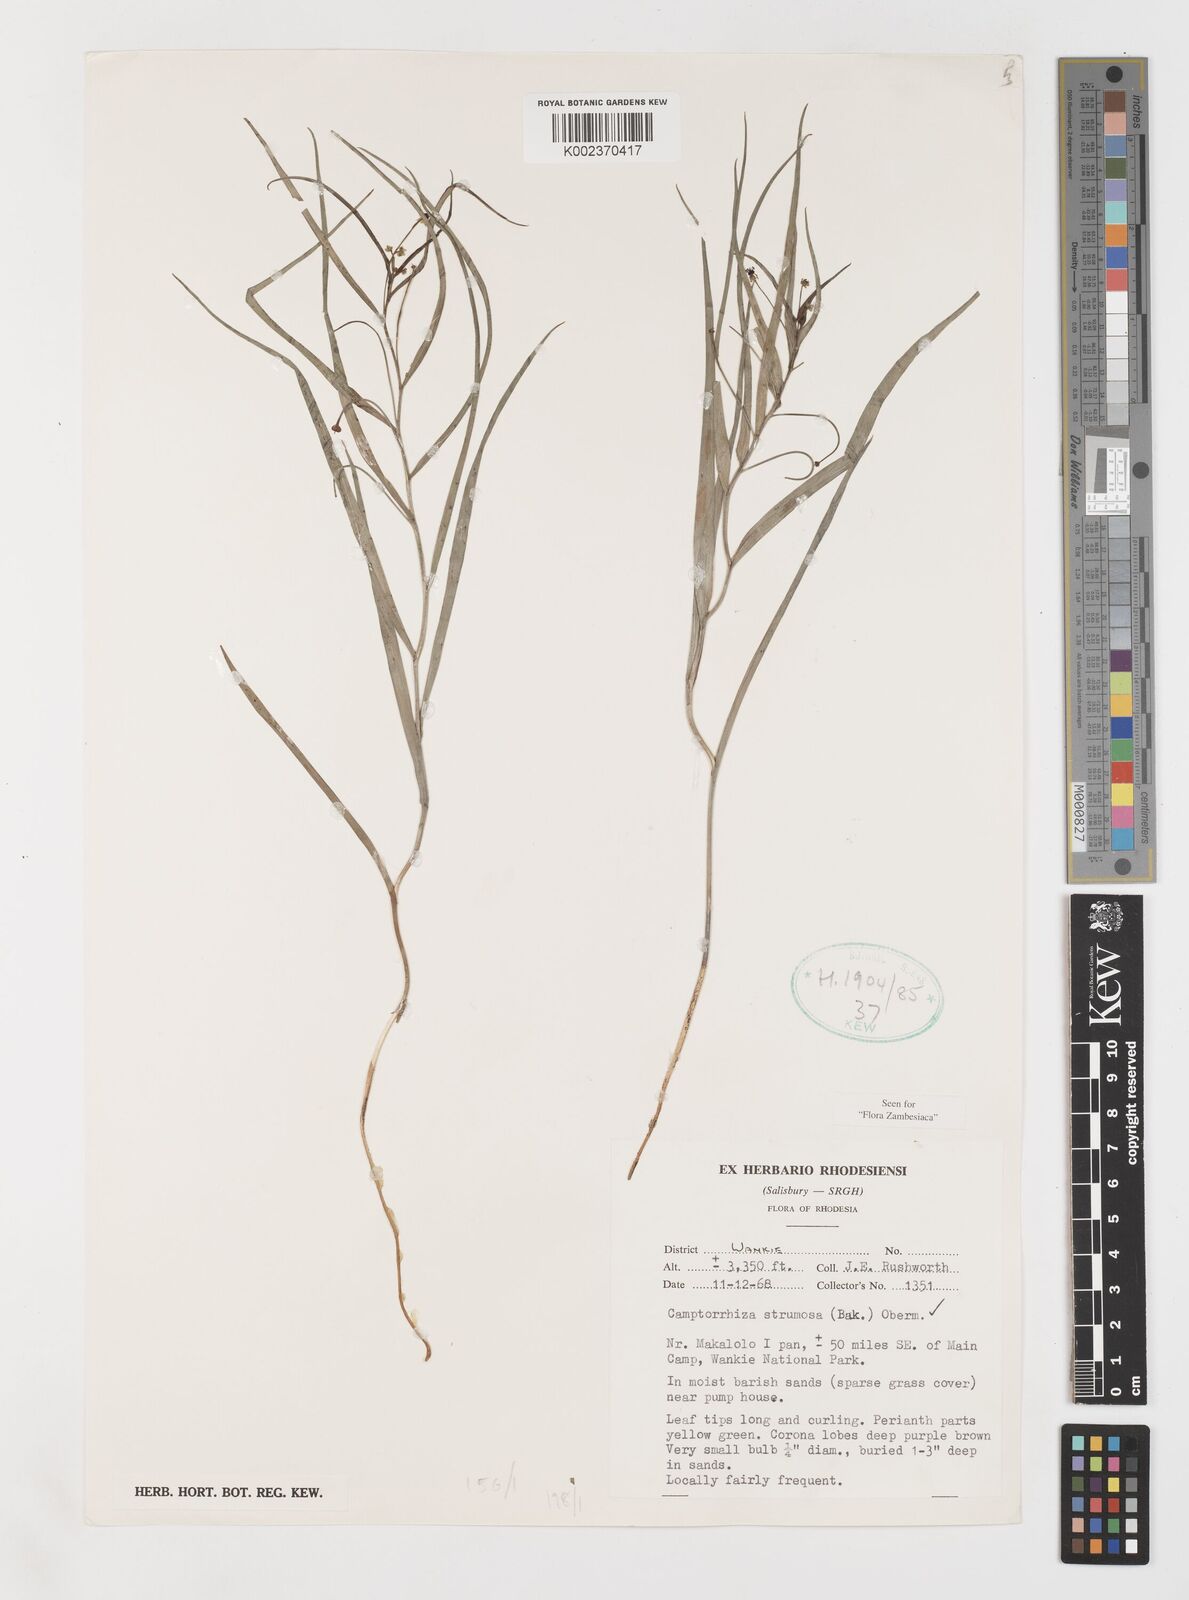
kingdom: Plantae
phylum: Tracheophyta
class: Liliopsida
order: Liliales
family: Colchicaceae
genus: Camptorrhiza
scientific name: Camptorrhiza strumosa
